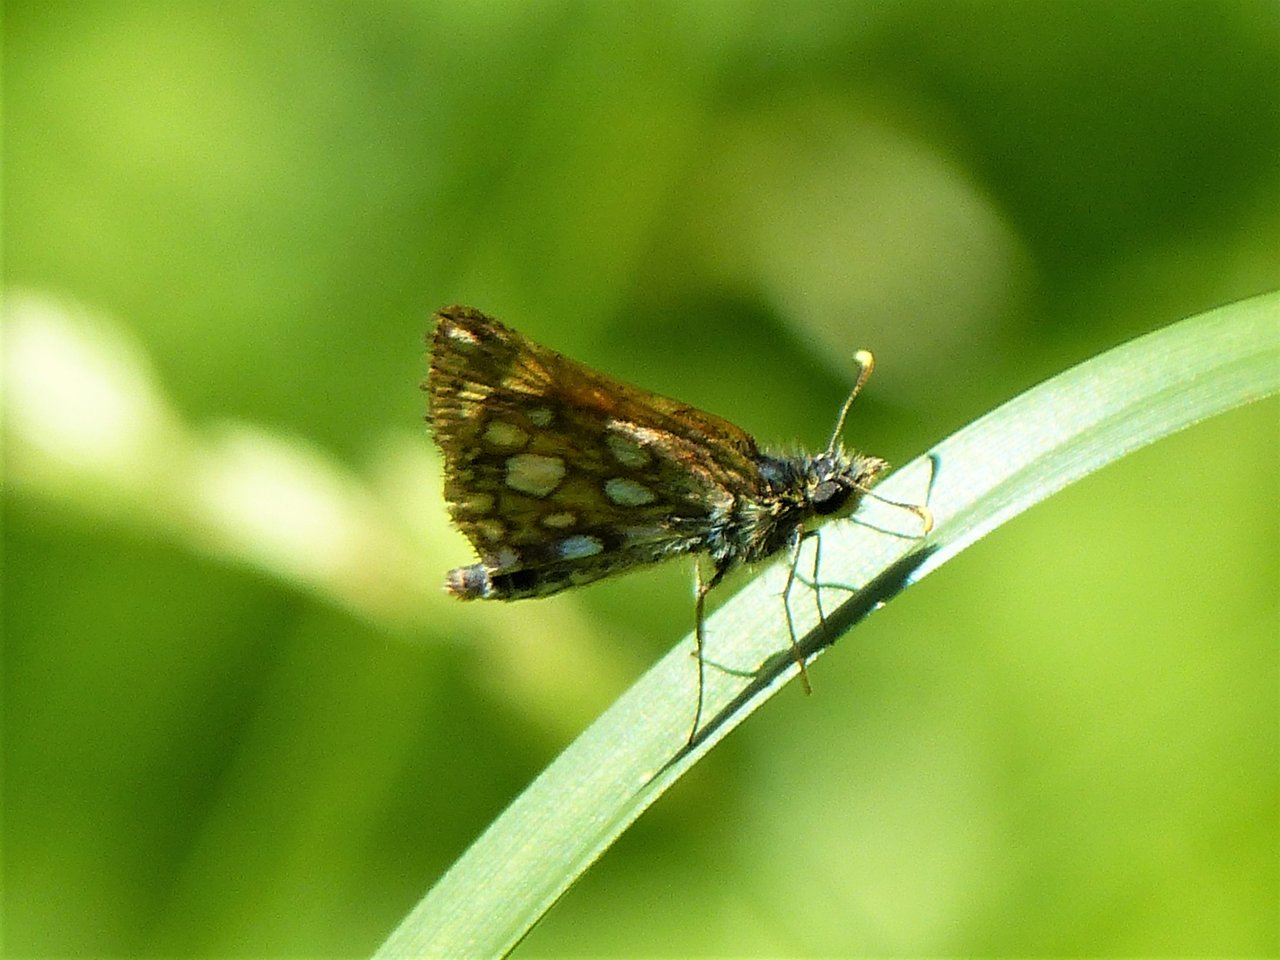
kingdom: Animalia
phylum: Arthropoda
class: Insecta
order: Lepidoptera
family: Hesperiidae
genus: Carterocephalus
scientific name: Carterocephalus palaemon
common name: Chequered Skipper
